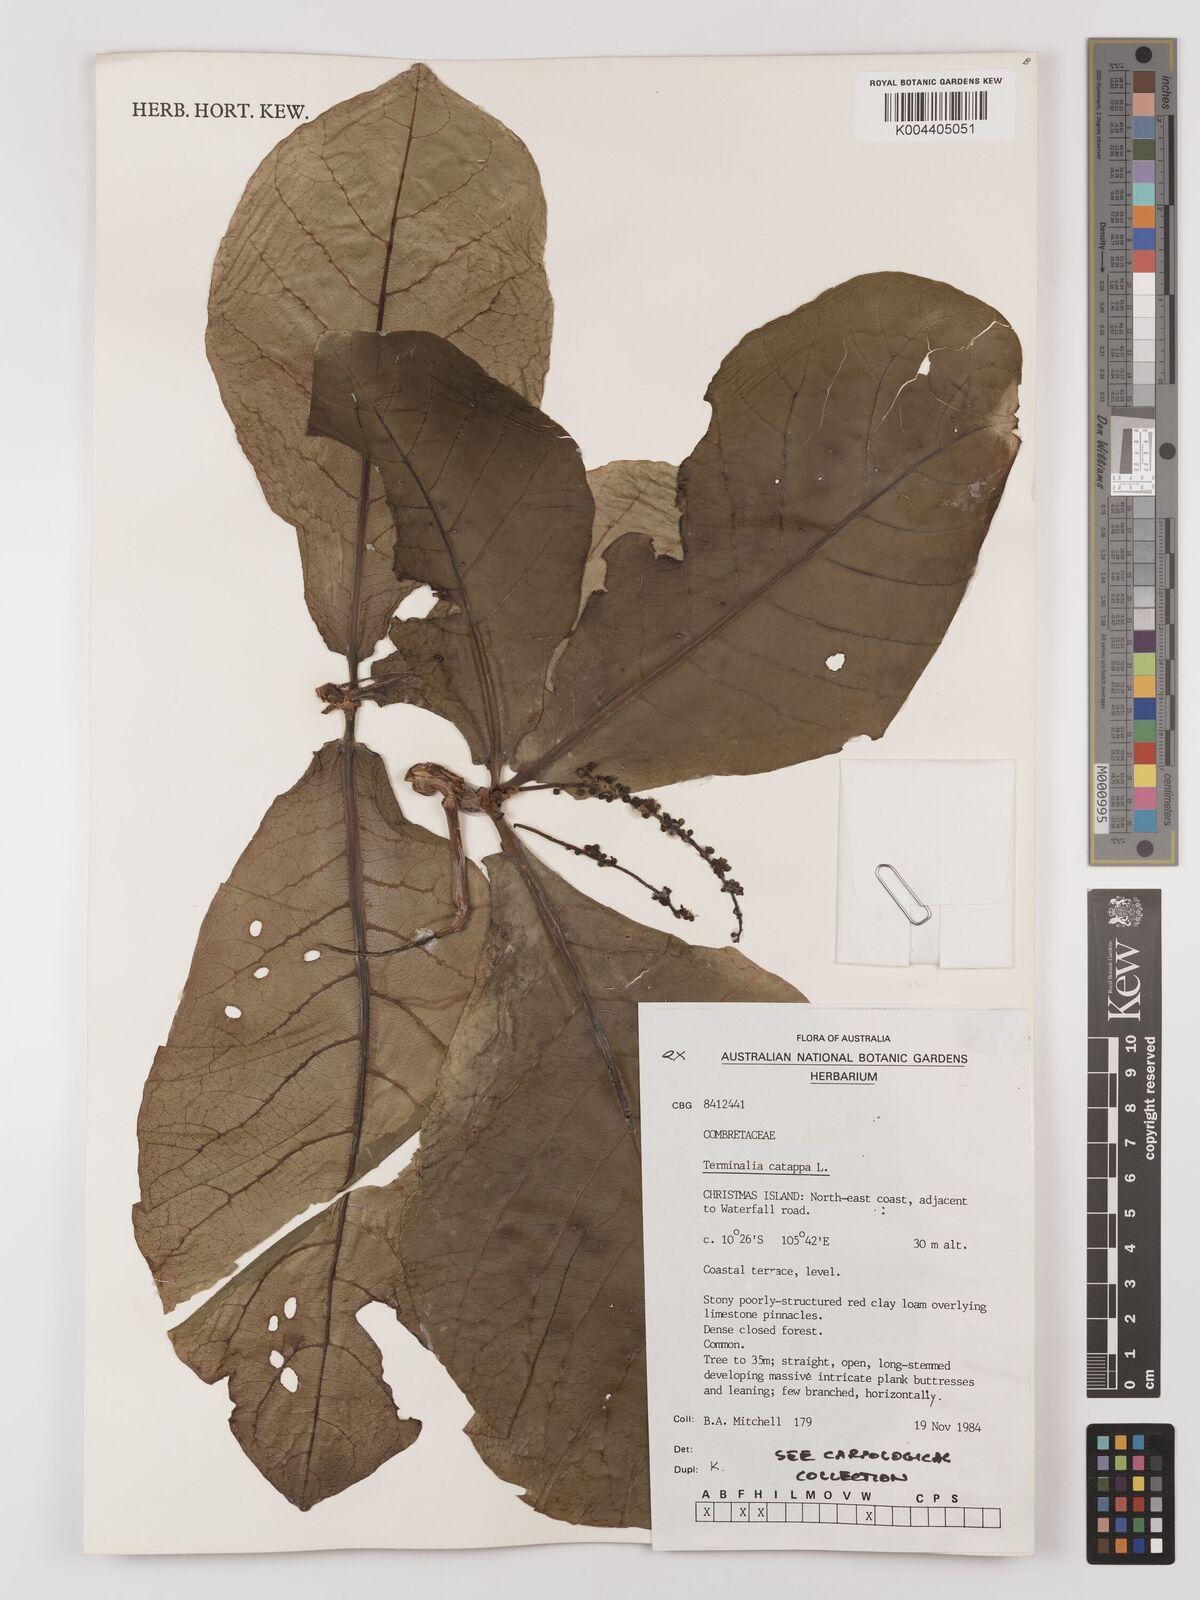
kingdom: Plantae
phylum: Tracheophyta
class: Magnoliopsida
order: Myrtales
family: Combretaceae
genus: Terminalia
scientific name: Terminalia catappa
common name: Tropical almond
